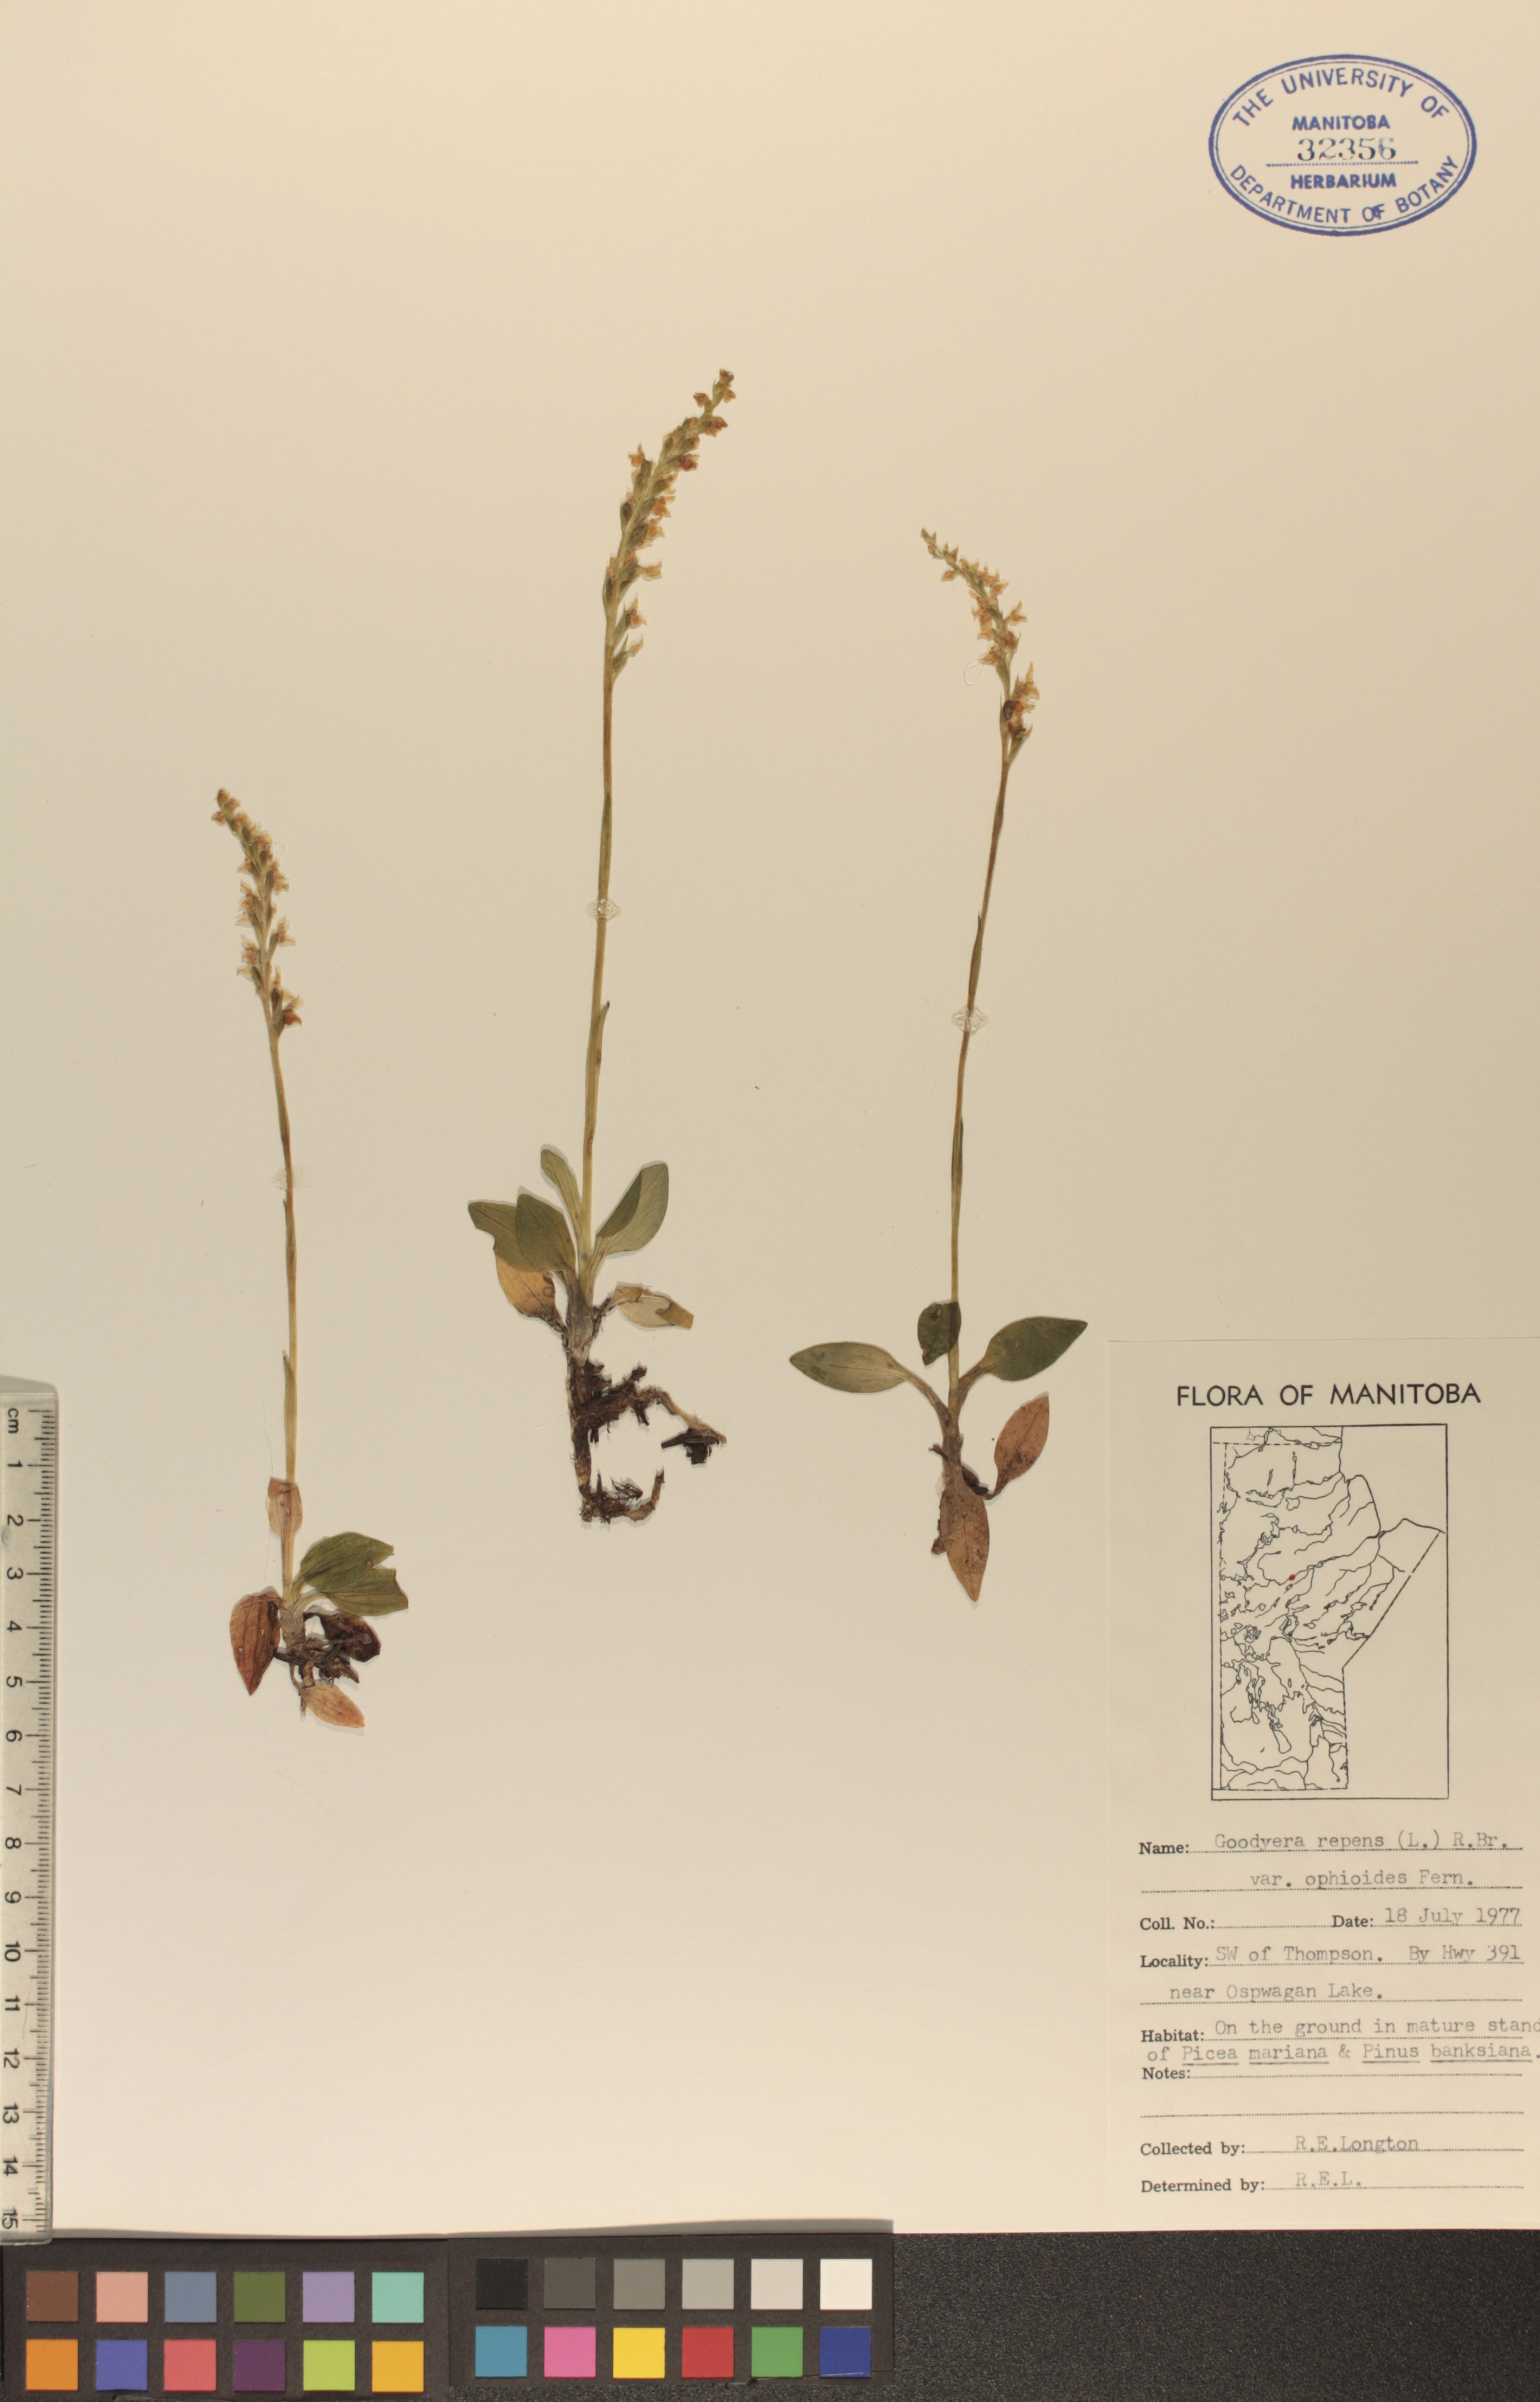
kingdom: Plantae
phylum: Tracheophyta
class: Liliopsida
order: Asparagales
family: Orchidaceae
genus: Goodyera
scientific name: Goodyera repens
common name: Creeping lady's-tresses
